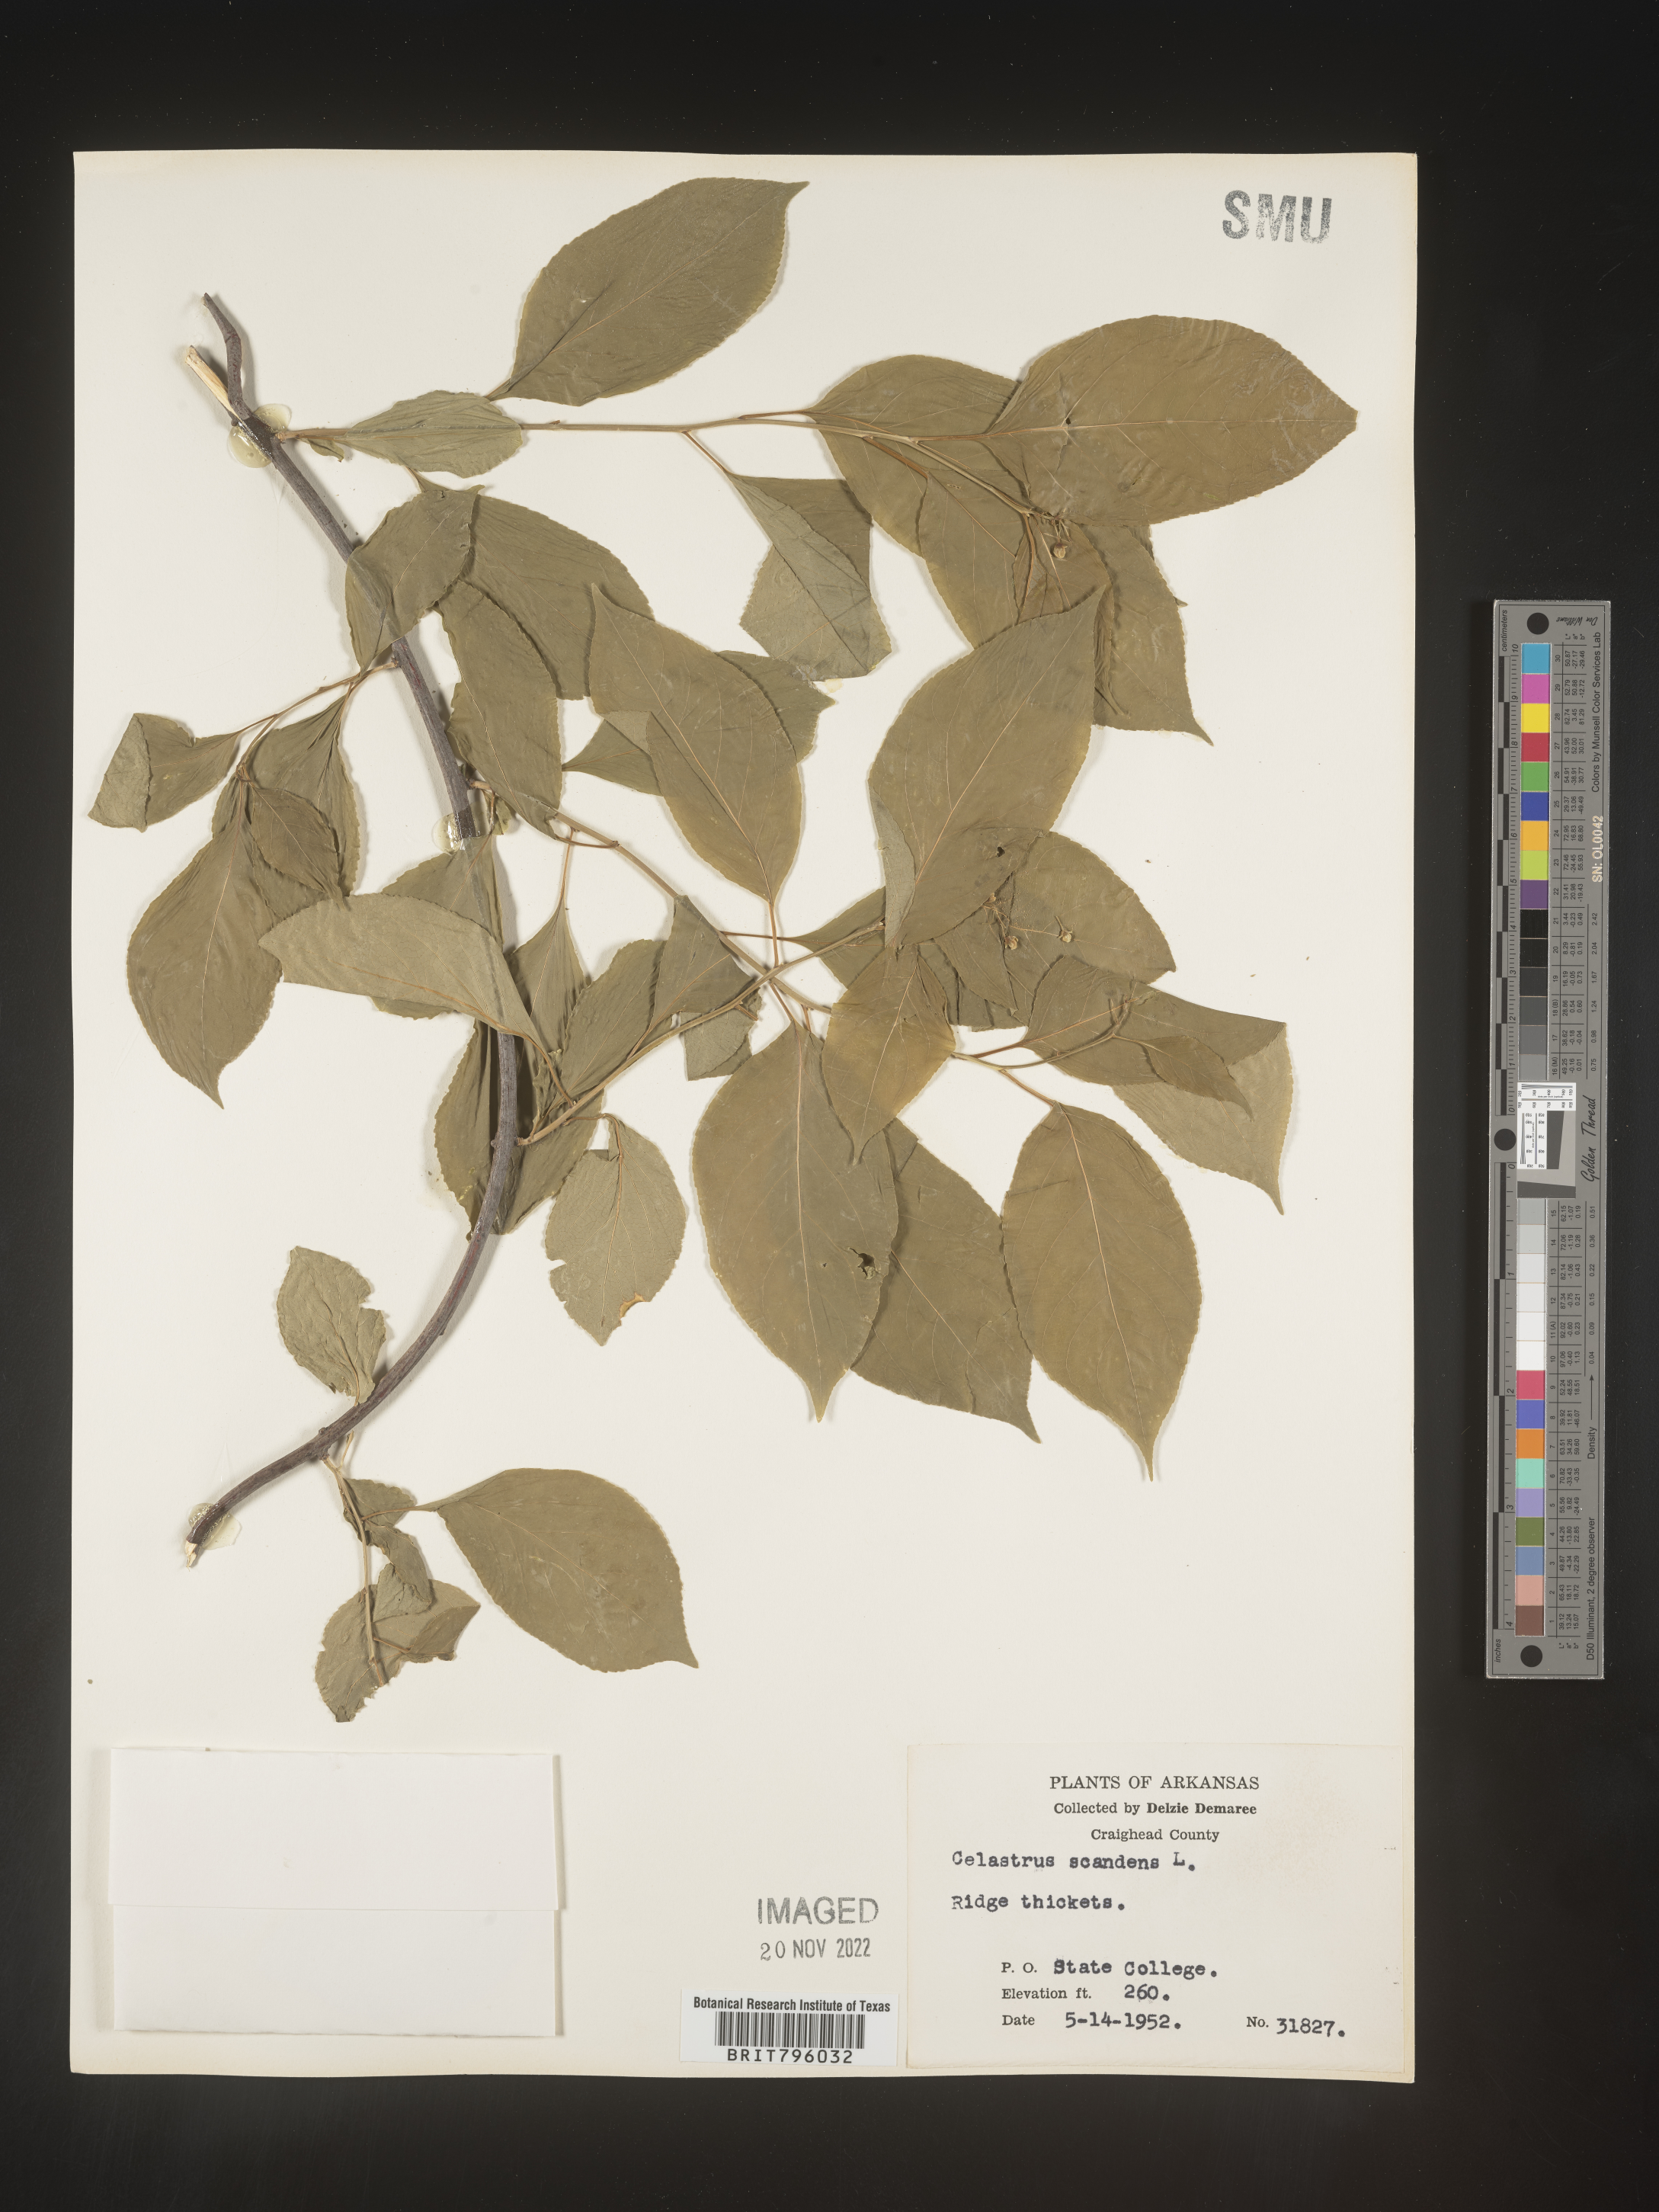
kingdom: Plantae
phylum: Tracheophyta
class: Magnoliopsida
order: Celastrales
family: Celastraceae
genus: Celastrus
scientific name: Celastrus scandens
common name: American bittersweet
